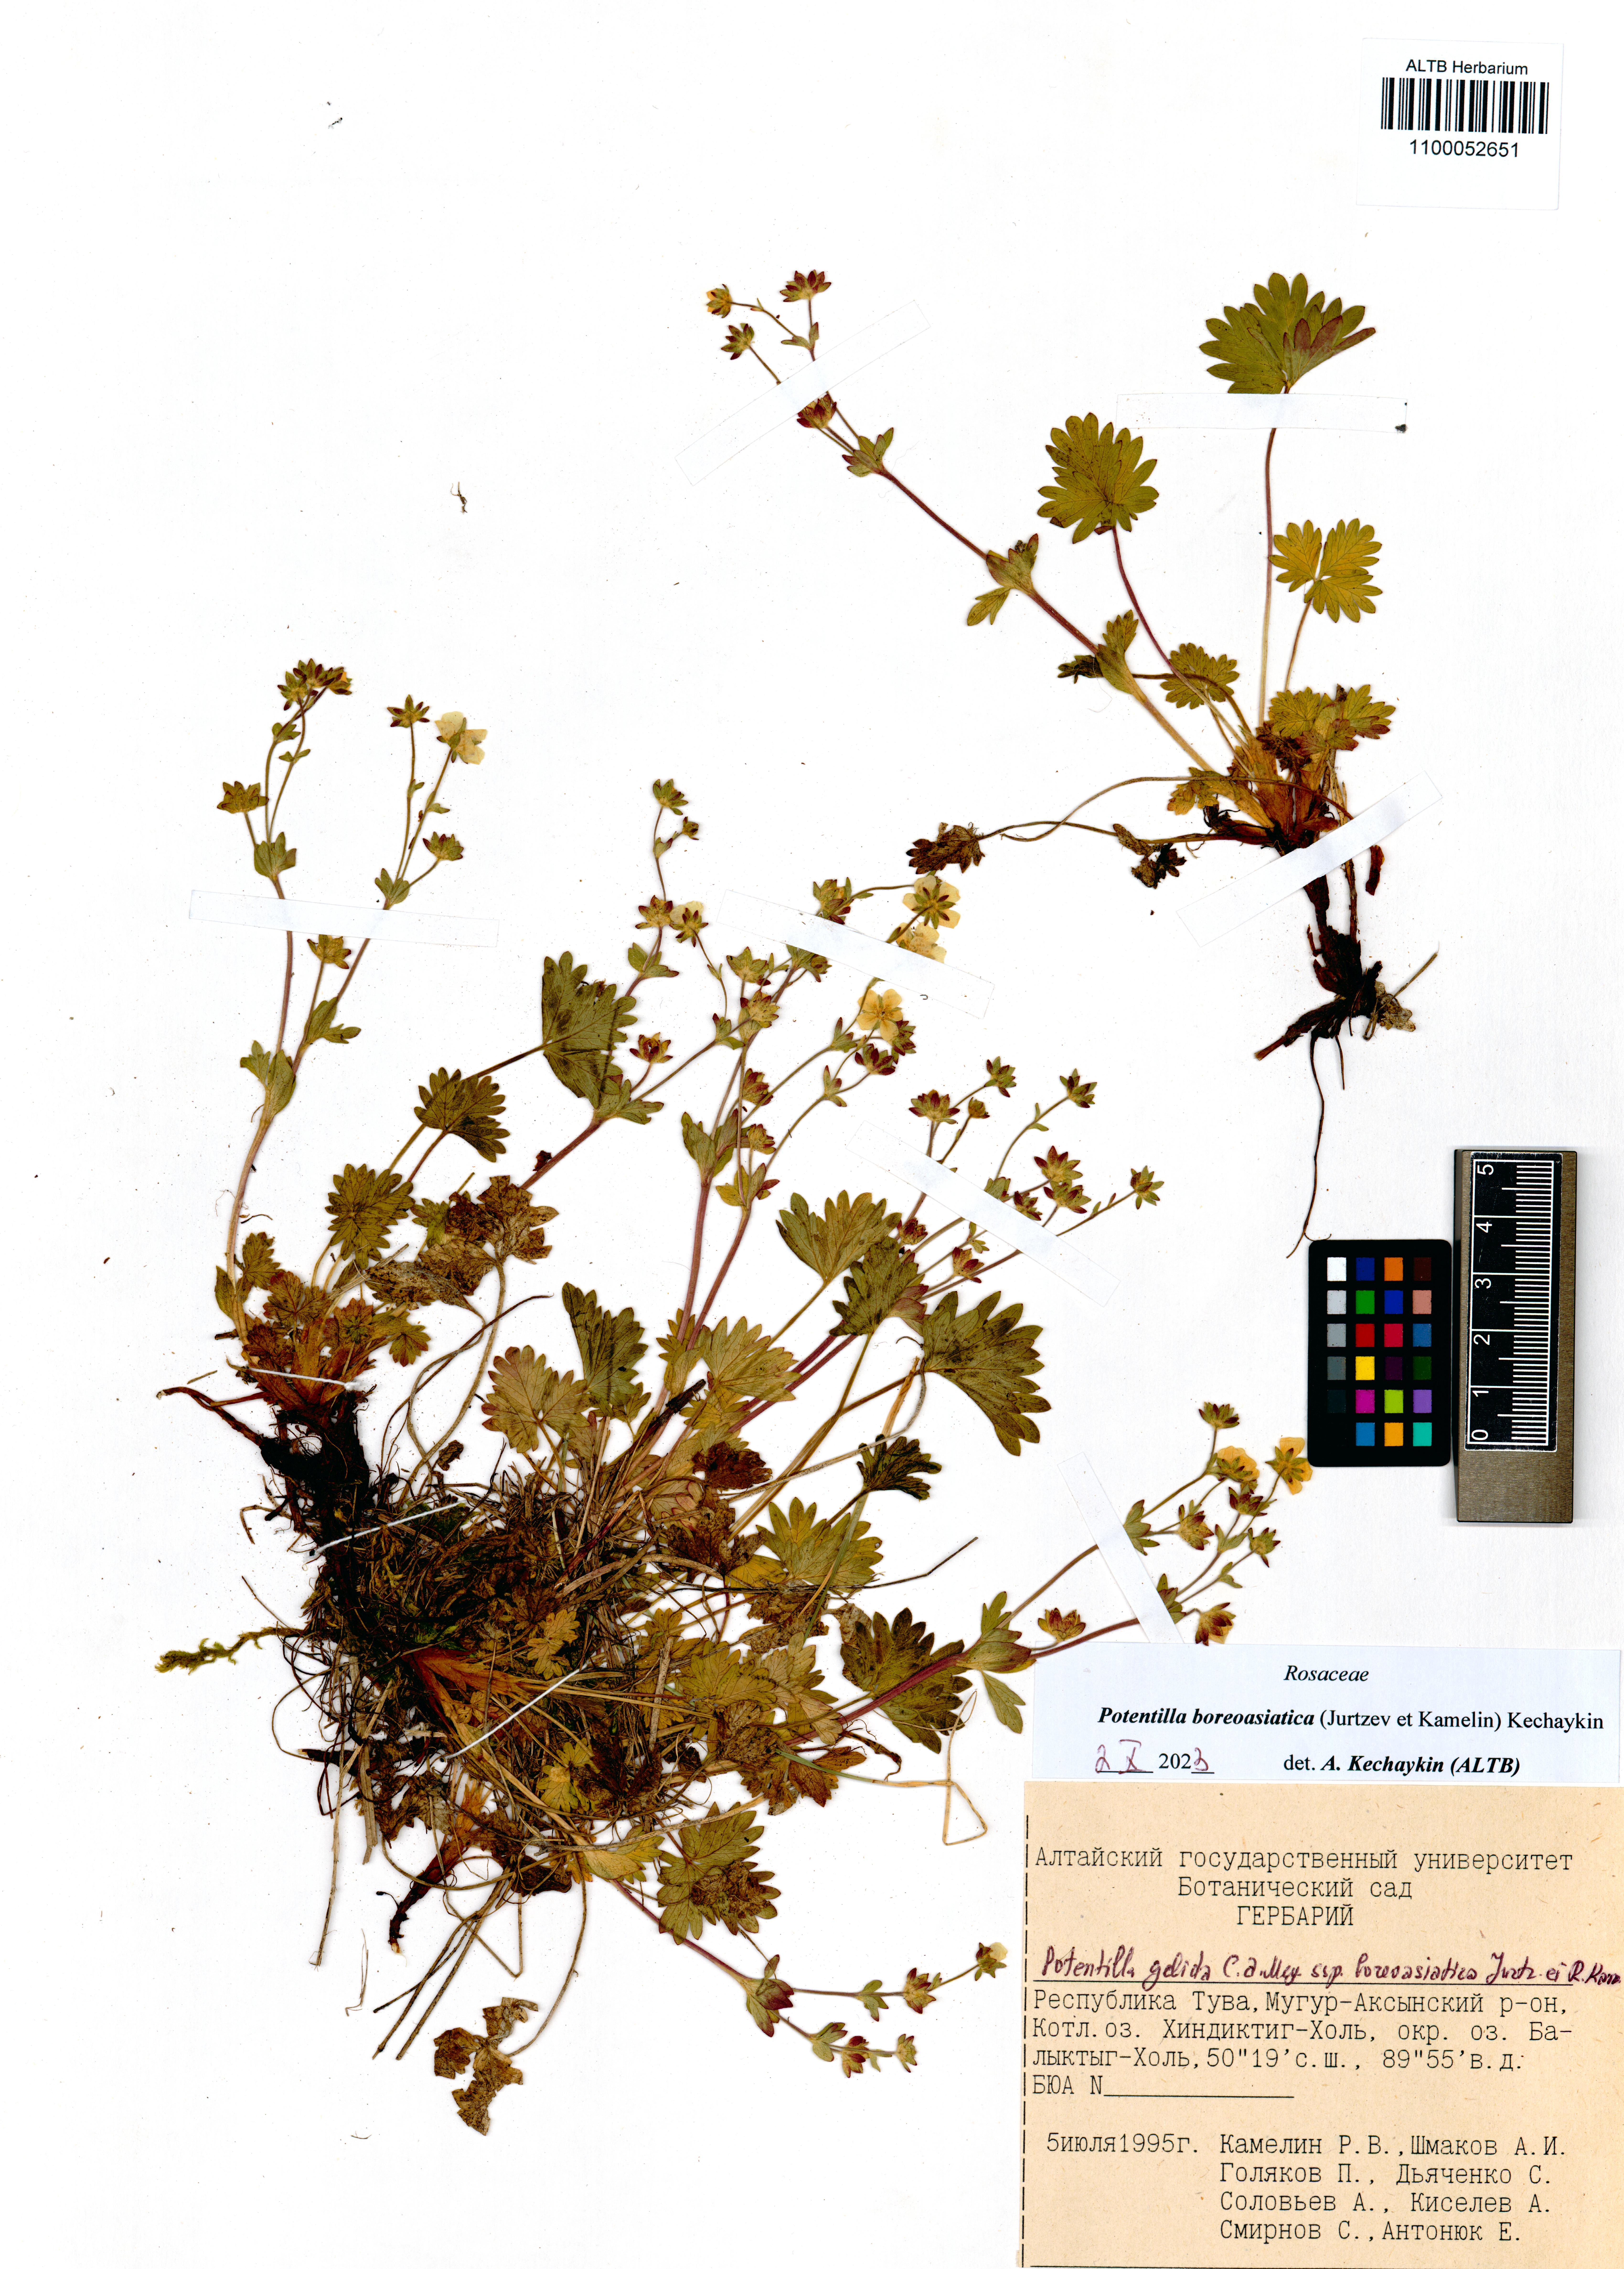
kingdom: Plantae
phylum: Tracheophyta
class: Magnoliopsida
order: Rosales
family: Rosaceae
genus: Potentilla
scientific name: Potentilla
